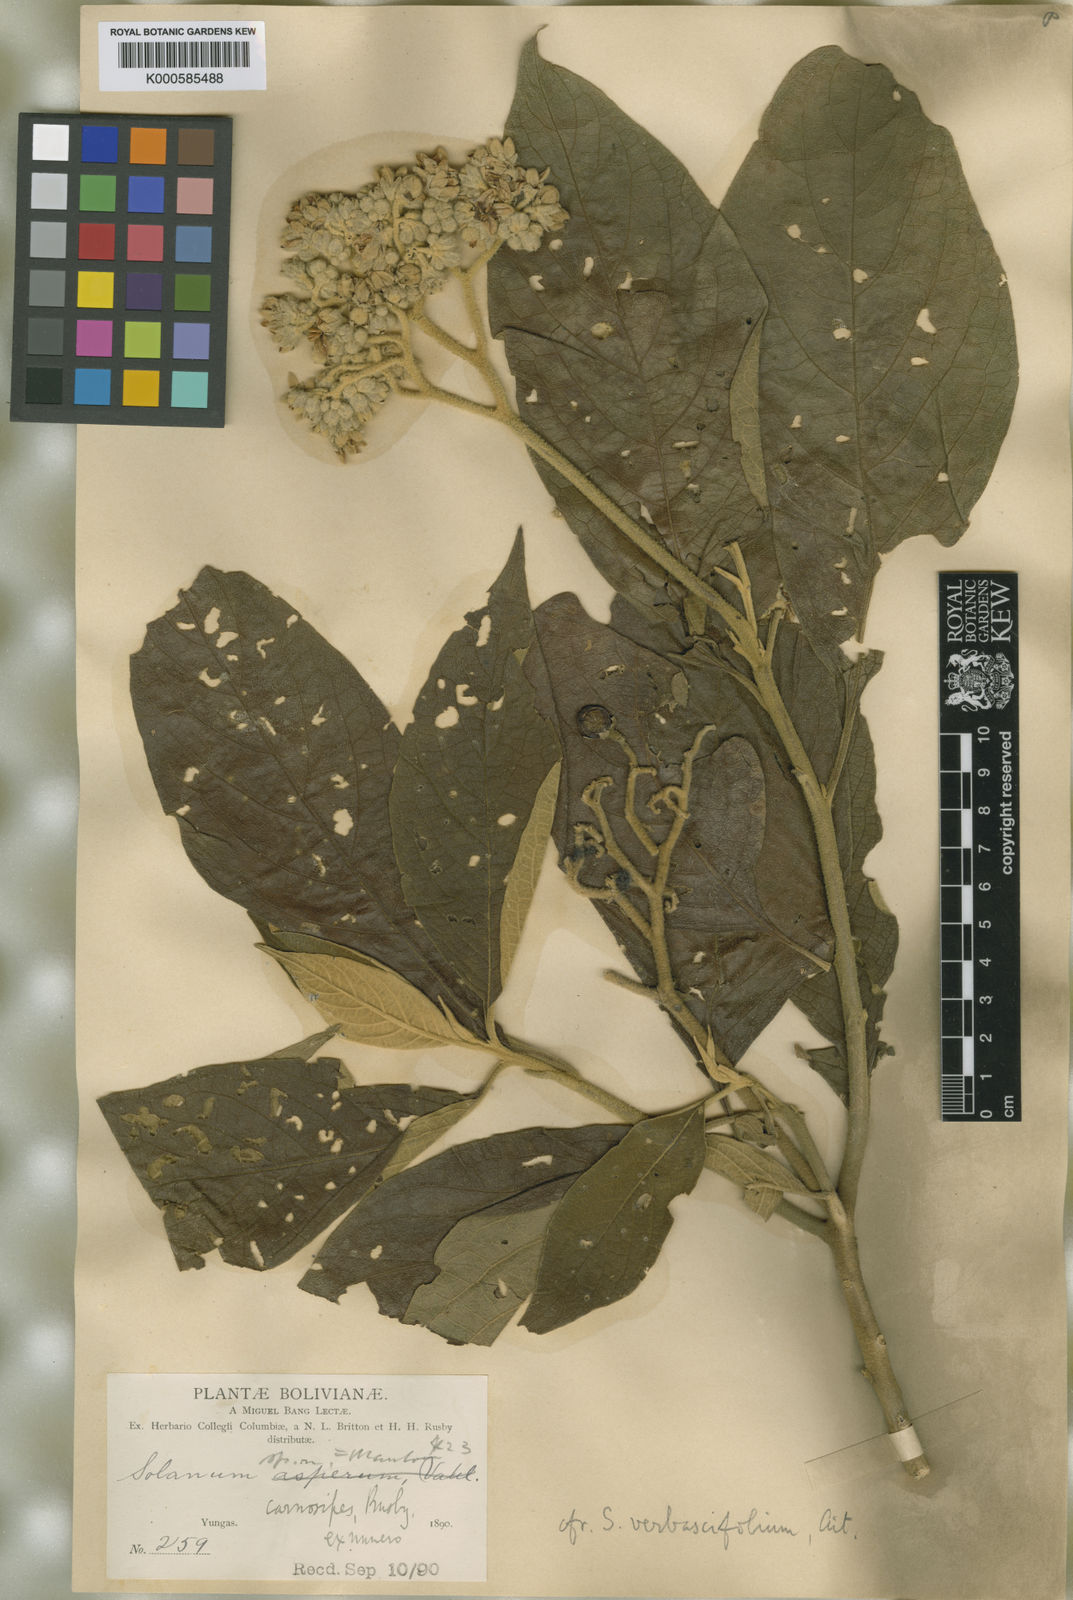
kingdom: Plantae
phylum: Tracheophyta
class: Magnoliopsida
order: Solanales
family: Solanaceae
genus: Solanum
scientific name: Solanum riparium
